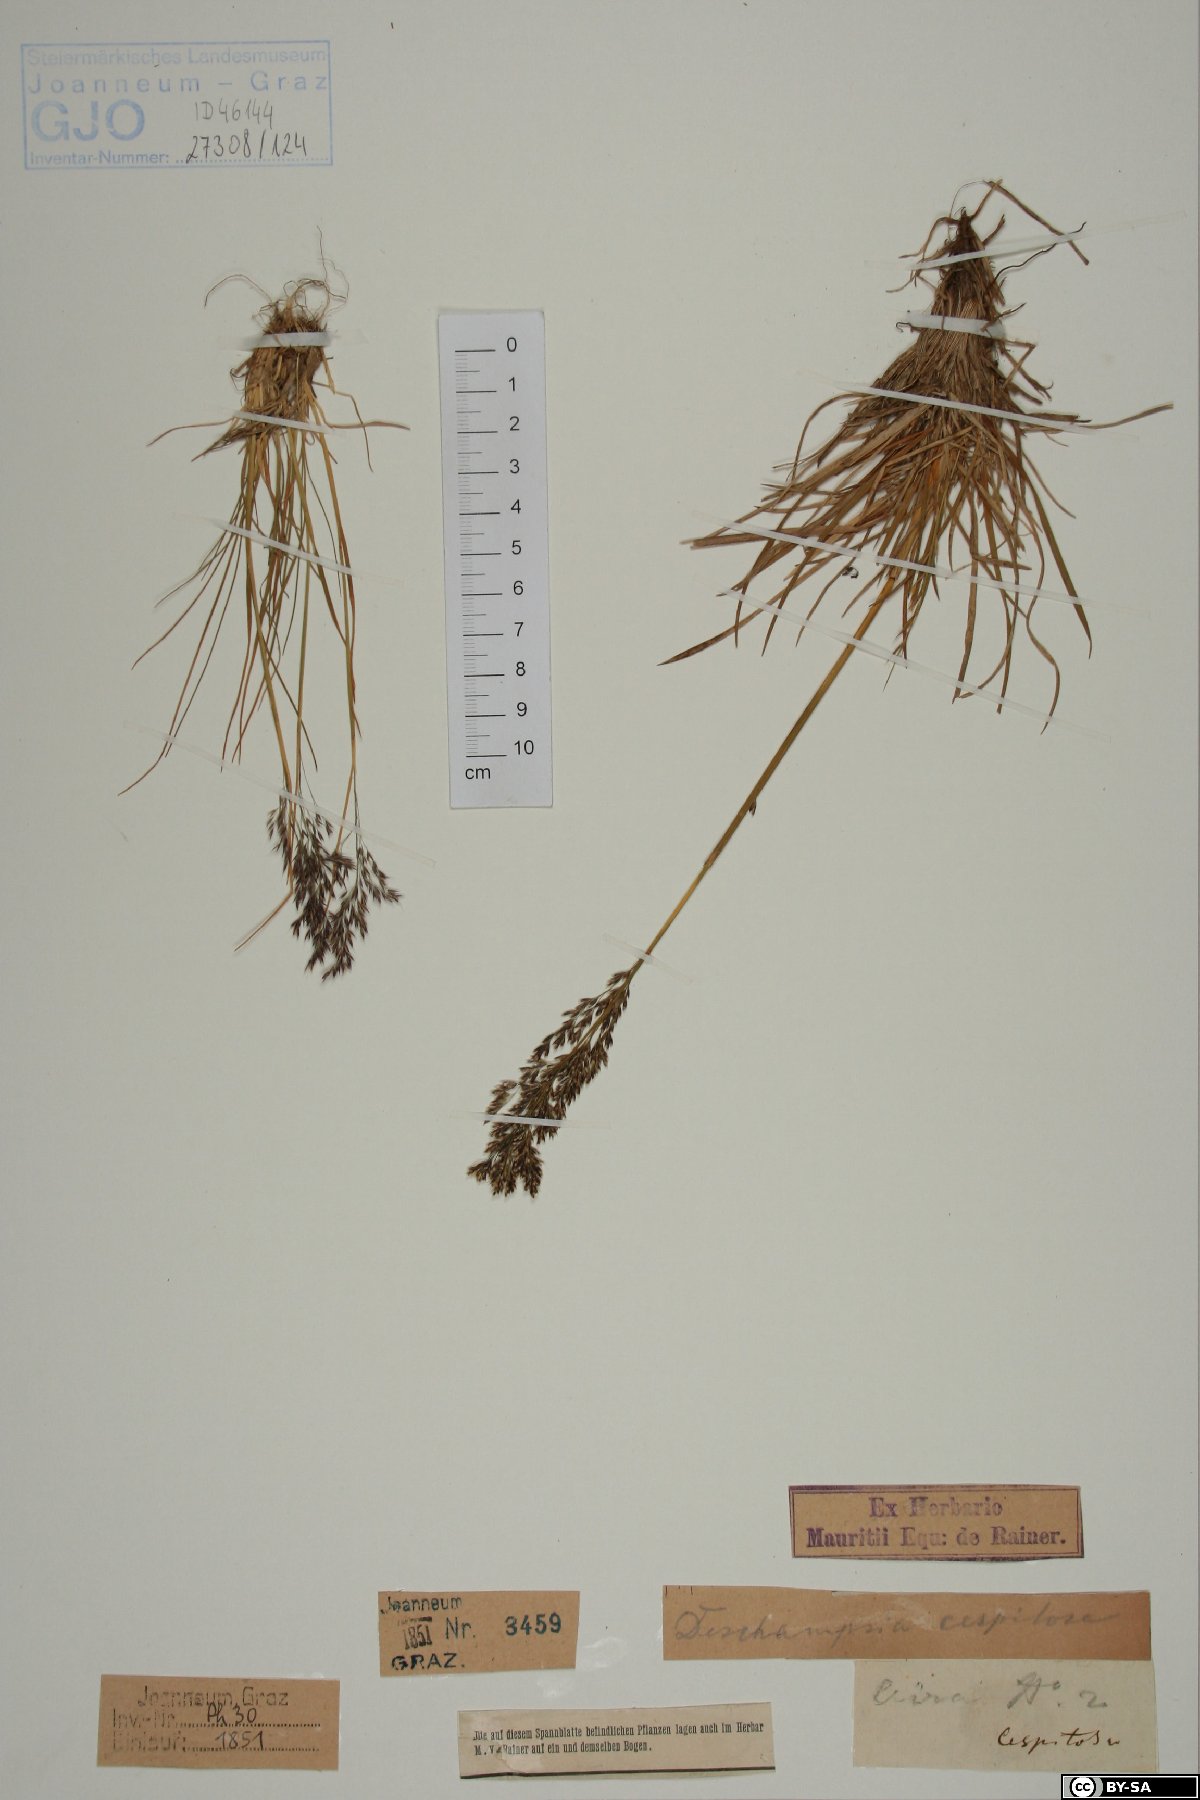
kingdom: Plantae
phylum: Tracheophyta
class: Liliopsida
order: Poales
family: Poaceae
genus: Deschampsia
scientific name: Deschampsia cespitosa
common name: Tufted hair-grass
